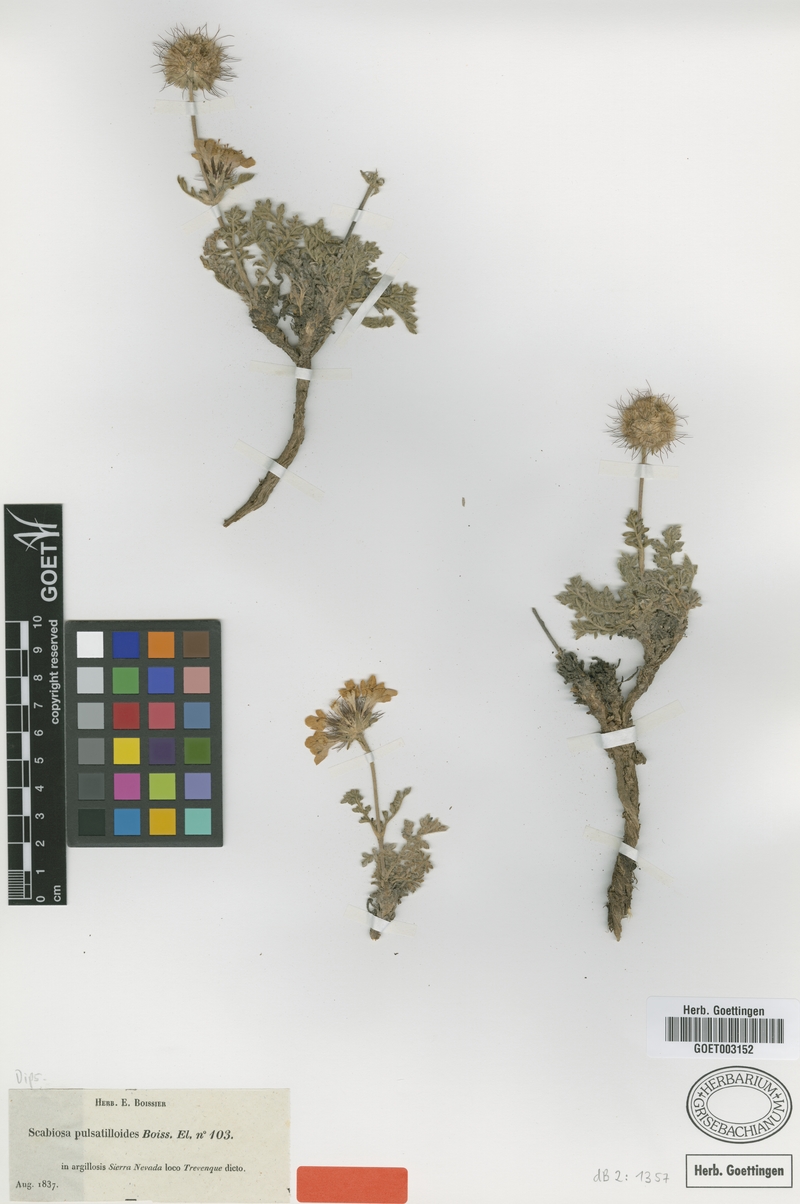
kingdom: Plantae
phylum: Tracheophyta
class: Magnoliopsida
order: Dipsacales
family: Caprifoliaceae
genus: Lomelosia
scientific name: Lomelosia pulsatilloides
